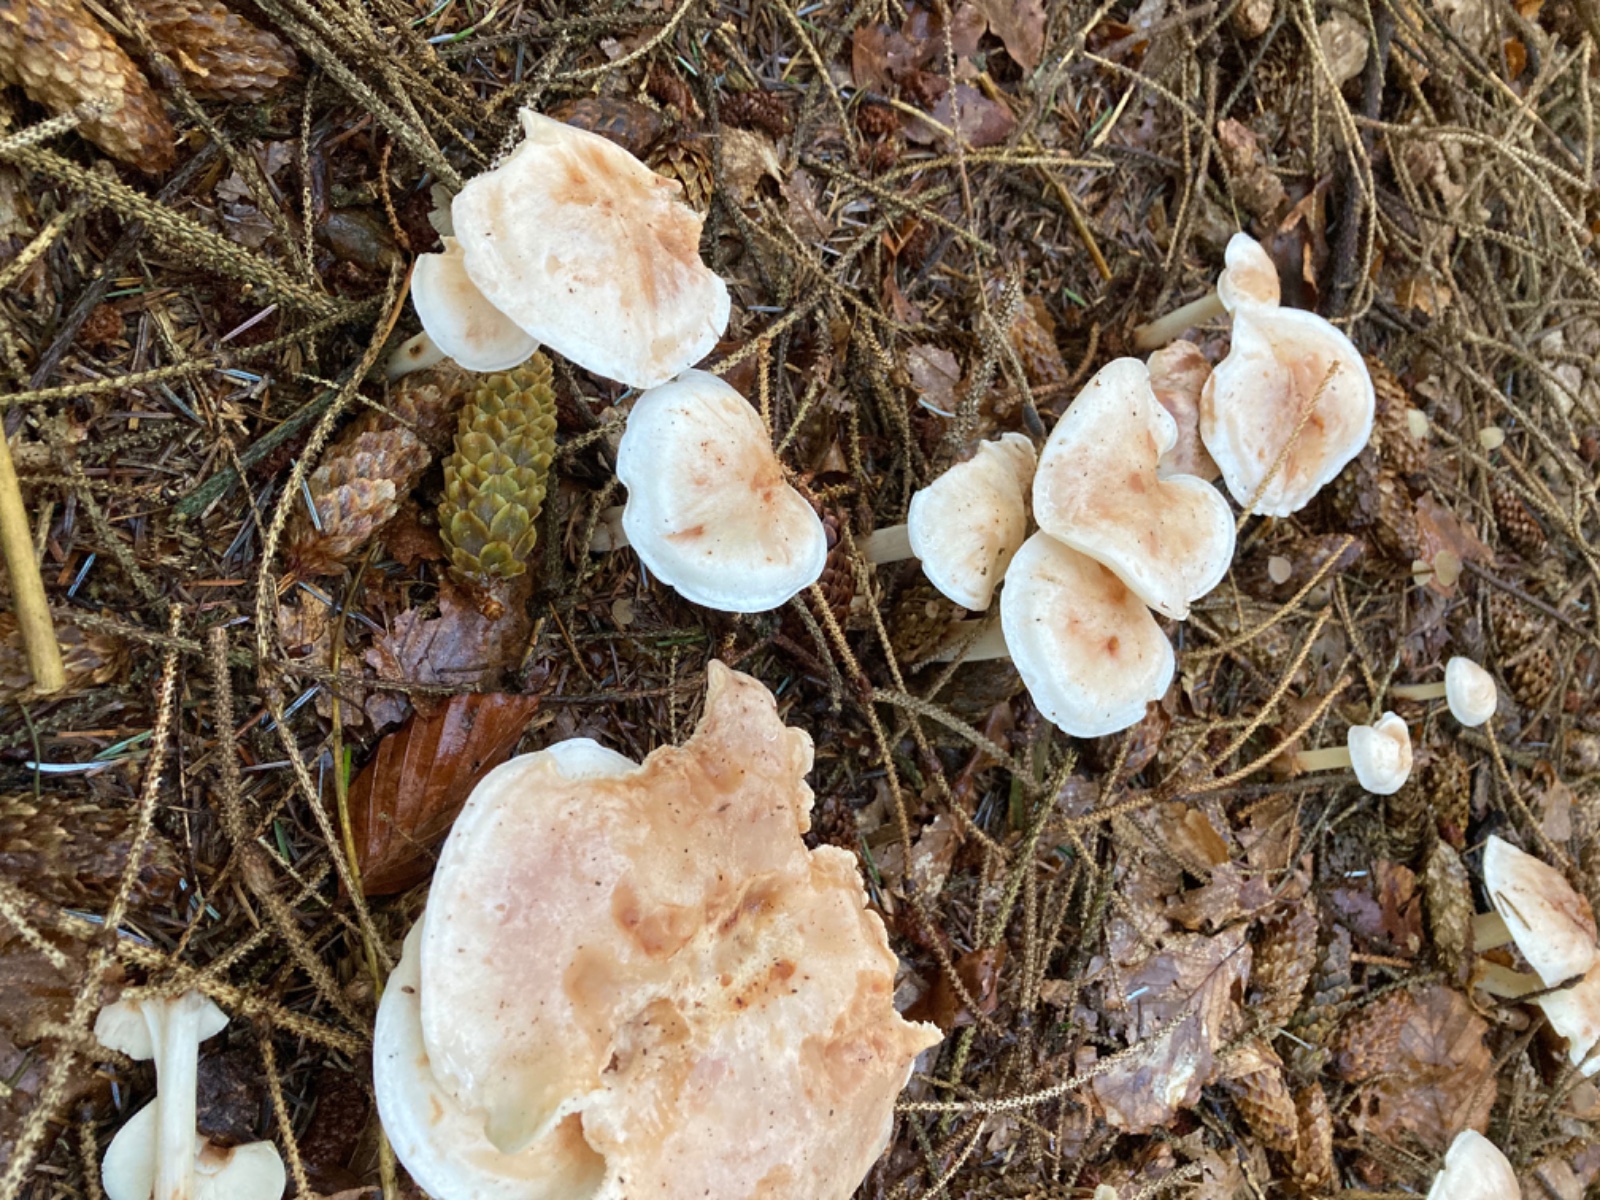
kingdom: Fungi
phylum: Basidiomycota
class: Agaricomycetes
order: Agaricales
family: Omphalotaceae
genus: Rhodocollybia
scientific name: Rhodocollybia maculata
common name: plettet fladhat
